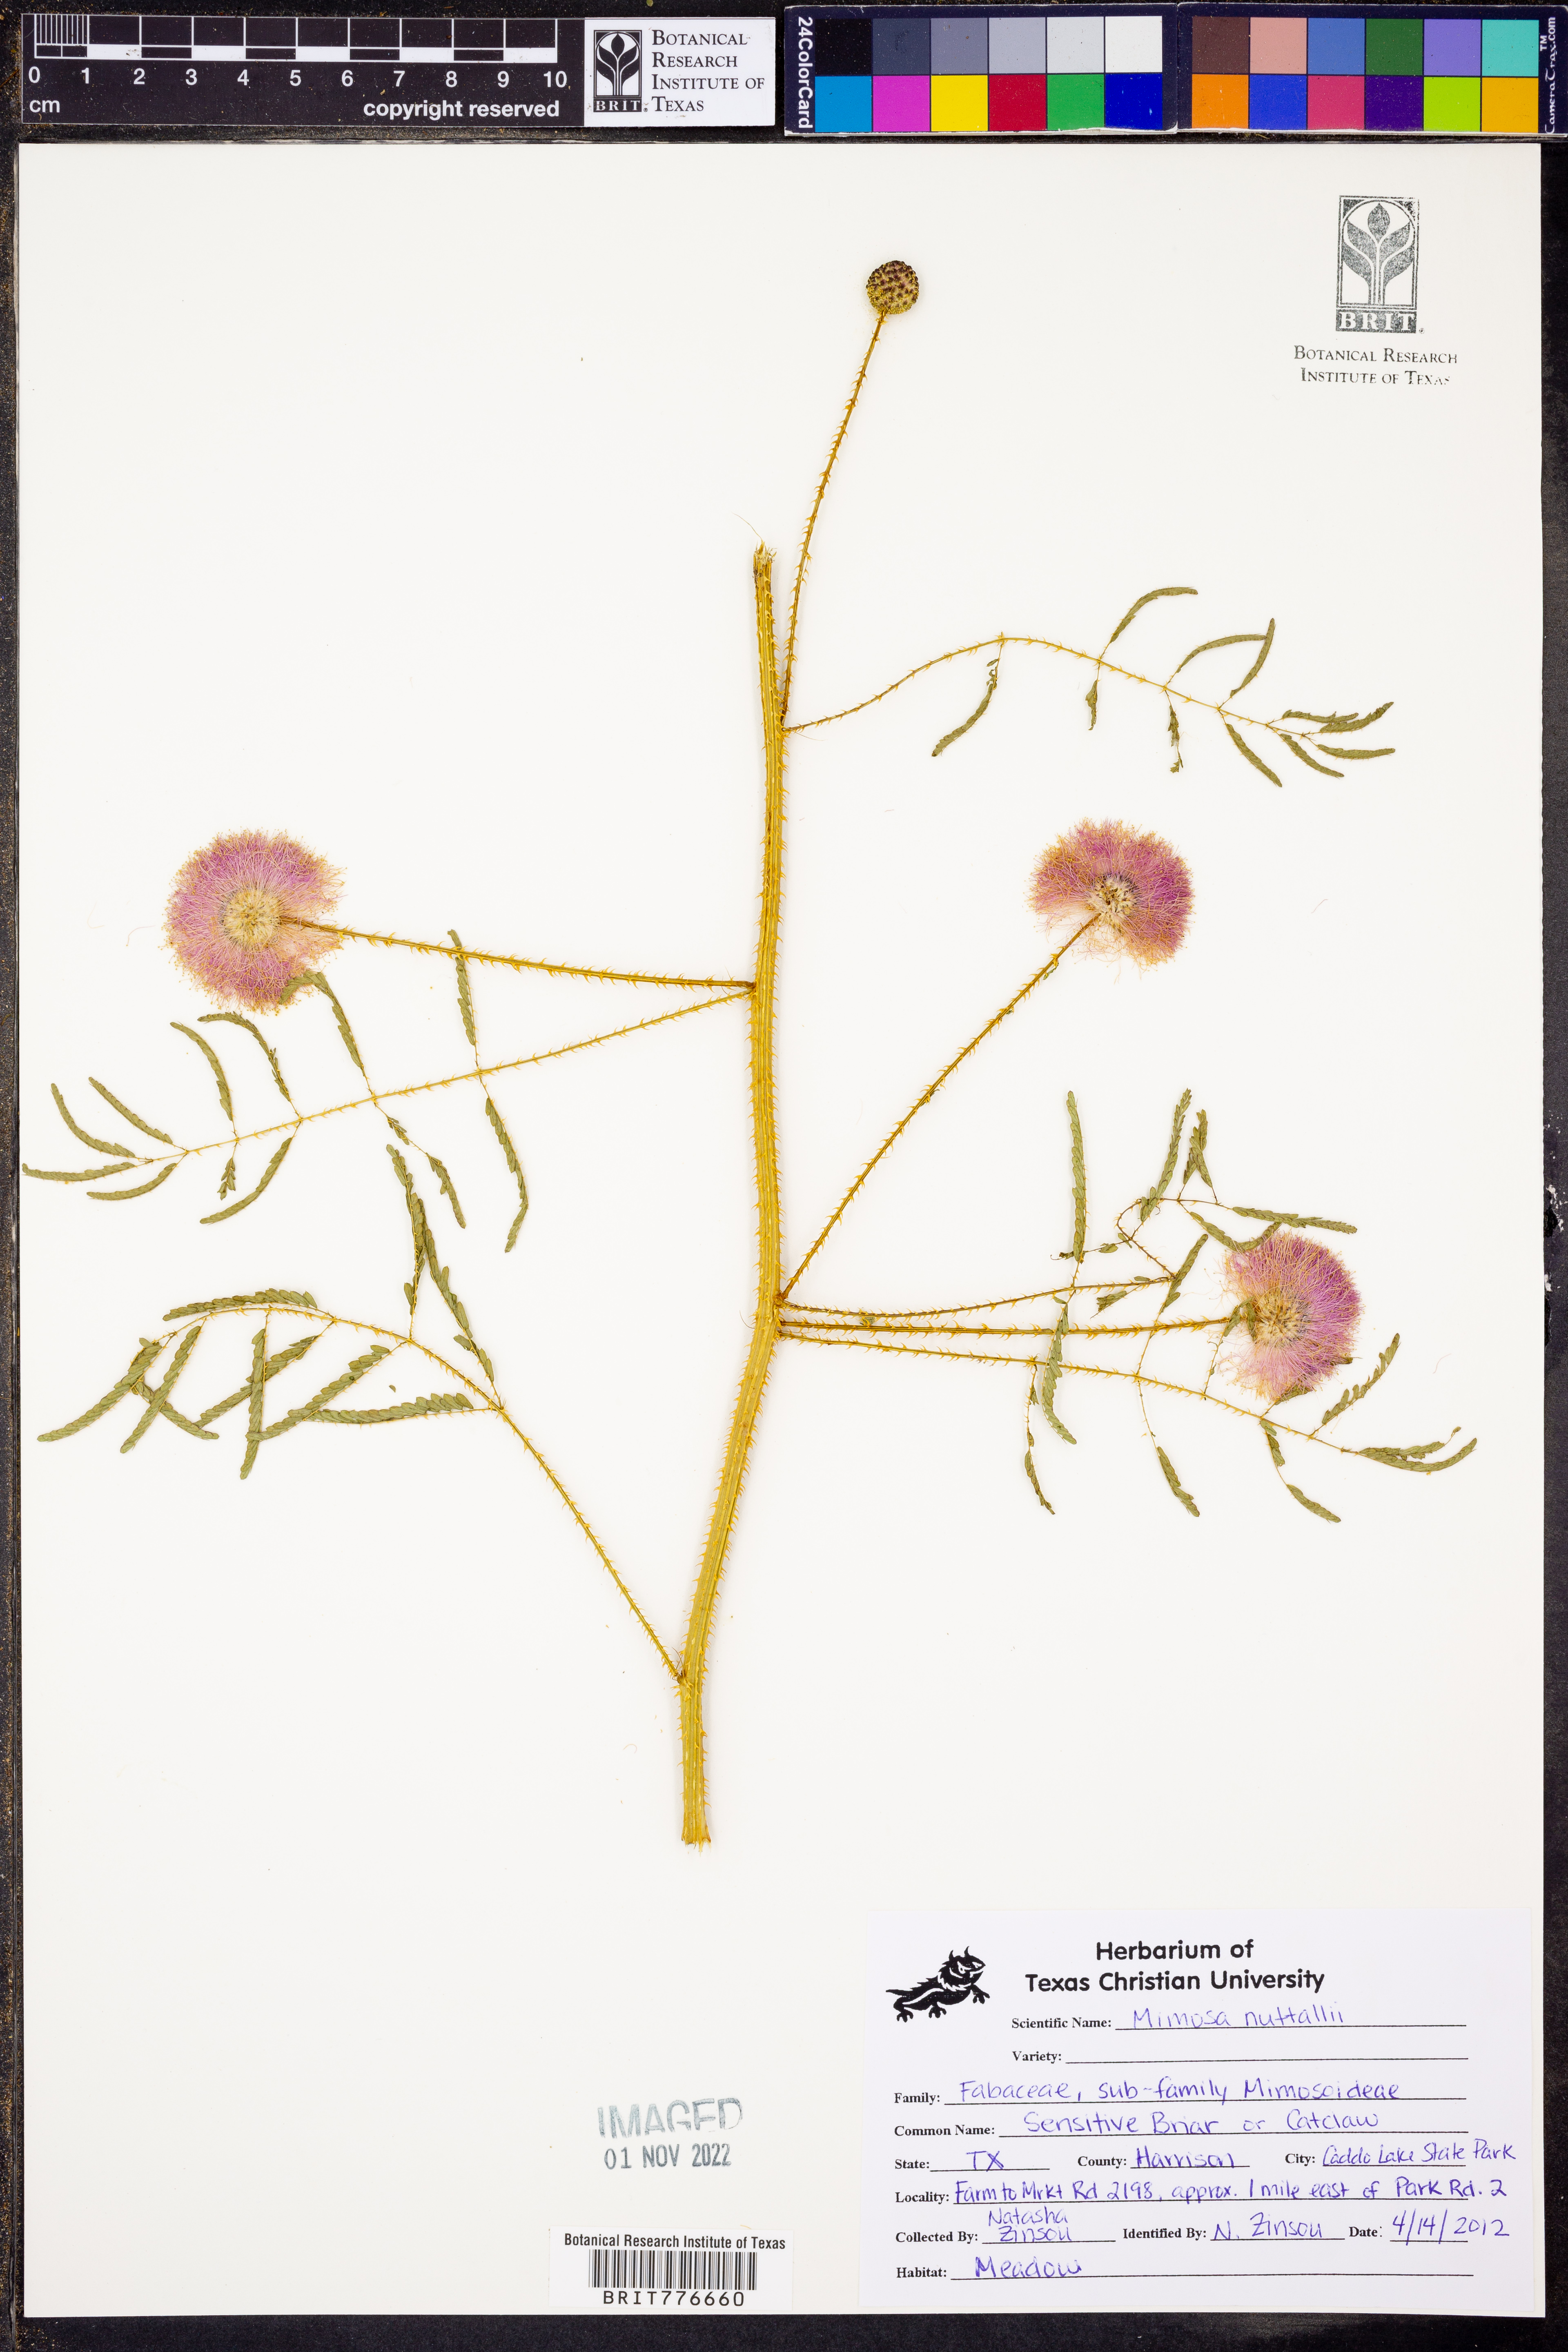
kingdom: Plantae
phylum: Tracheophyta
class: Magnoliopsida
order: Fabales
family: Fabaceae
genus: Mimosa
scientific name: Mimosa quadrivalvis
